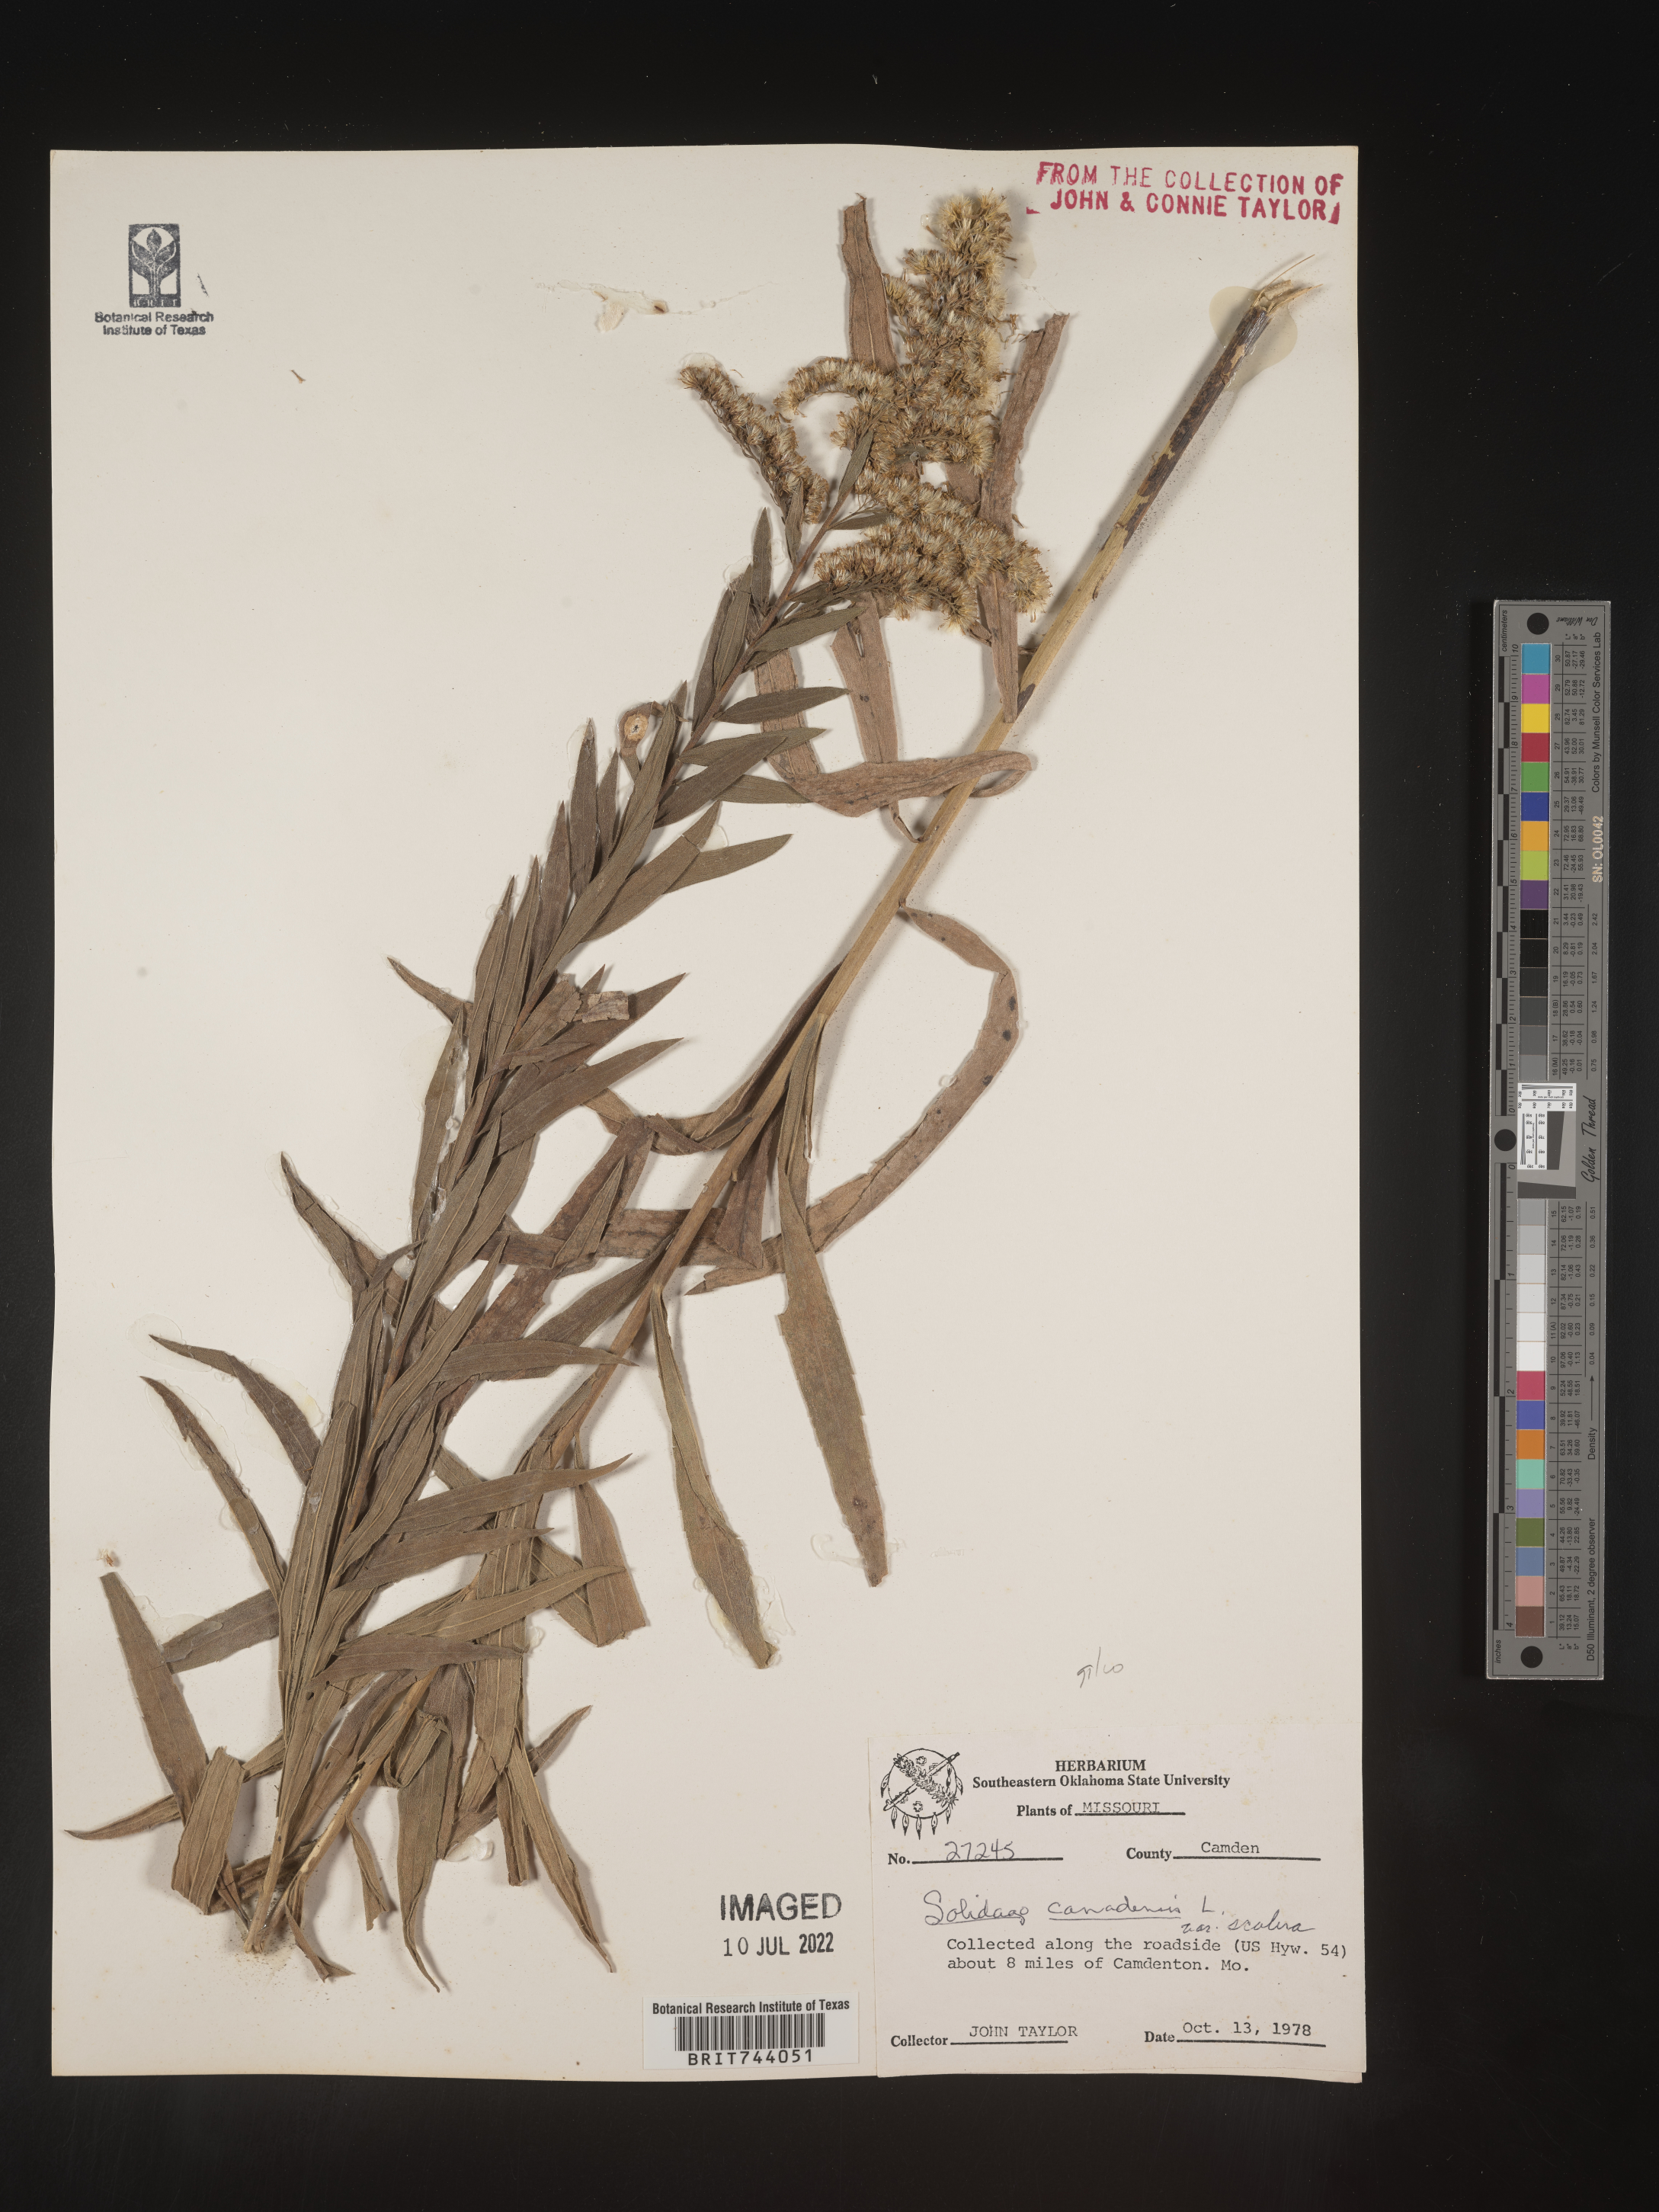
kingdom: Plantae
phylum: Tracheophyta
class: Magnoliopsida
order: Asterales
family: Asteraceae
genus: Solidago
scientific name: Solidago altissima
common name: Late goldenrod
